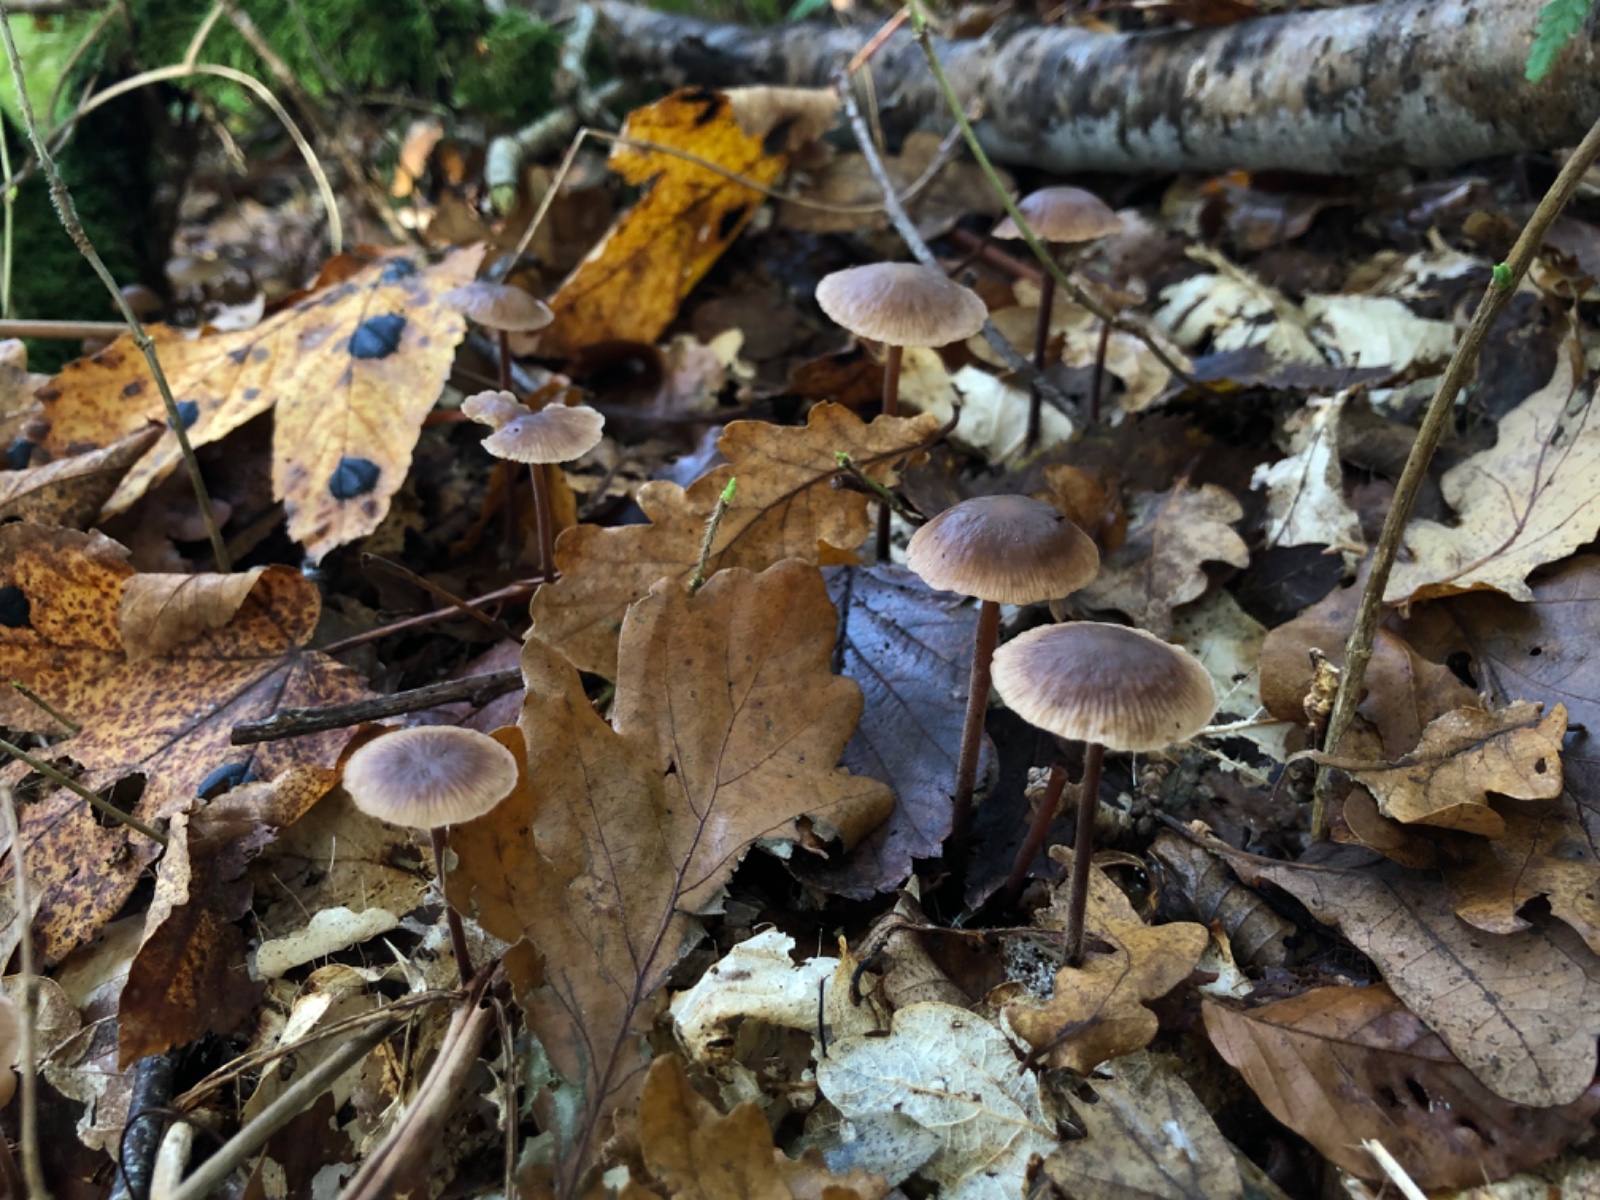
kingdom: Fungi
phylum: Basidiomycota
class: Agaricomycetes
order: Agaricales
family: Omphalotaceae
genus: Mycetinis
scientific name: Mycetinis querceus
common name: ege-løghat
